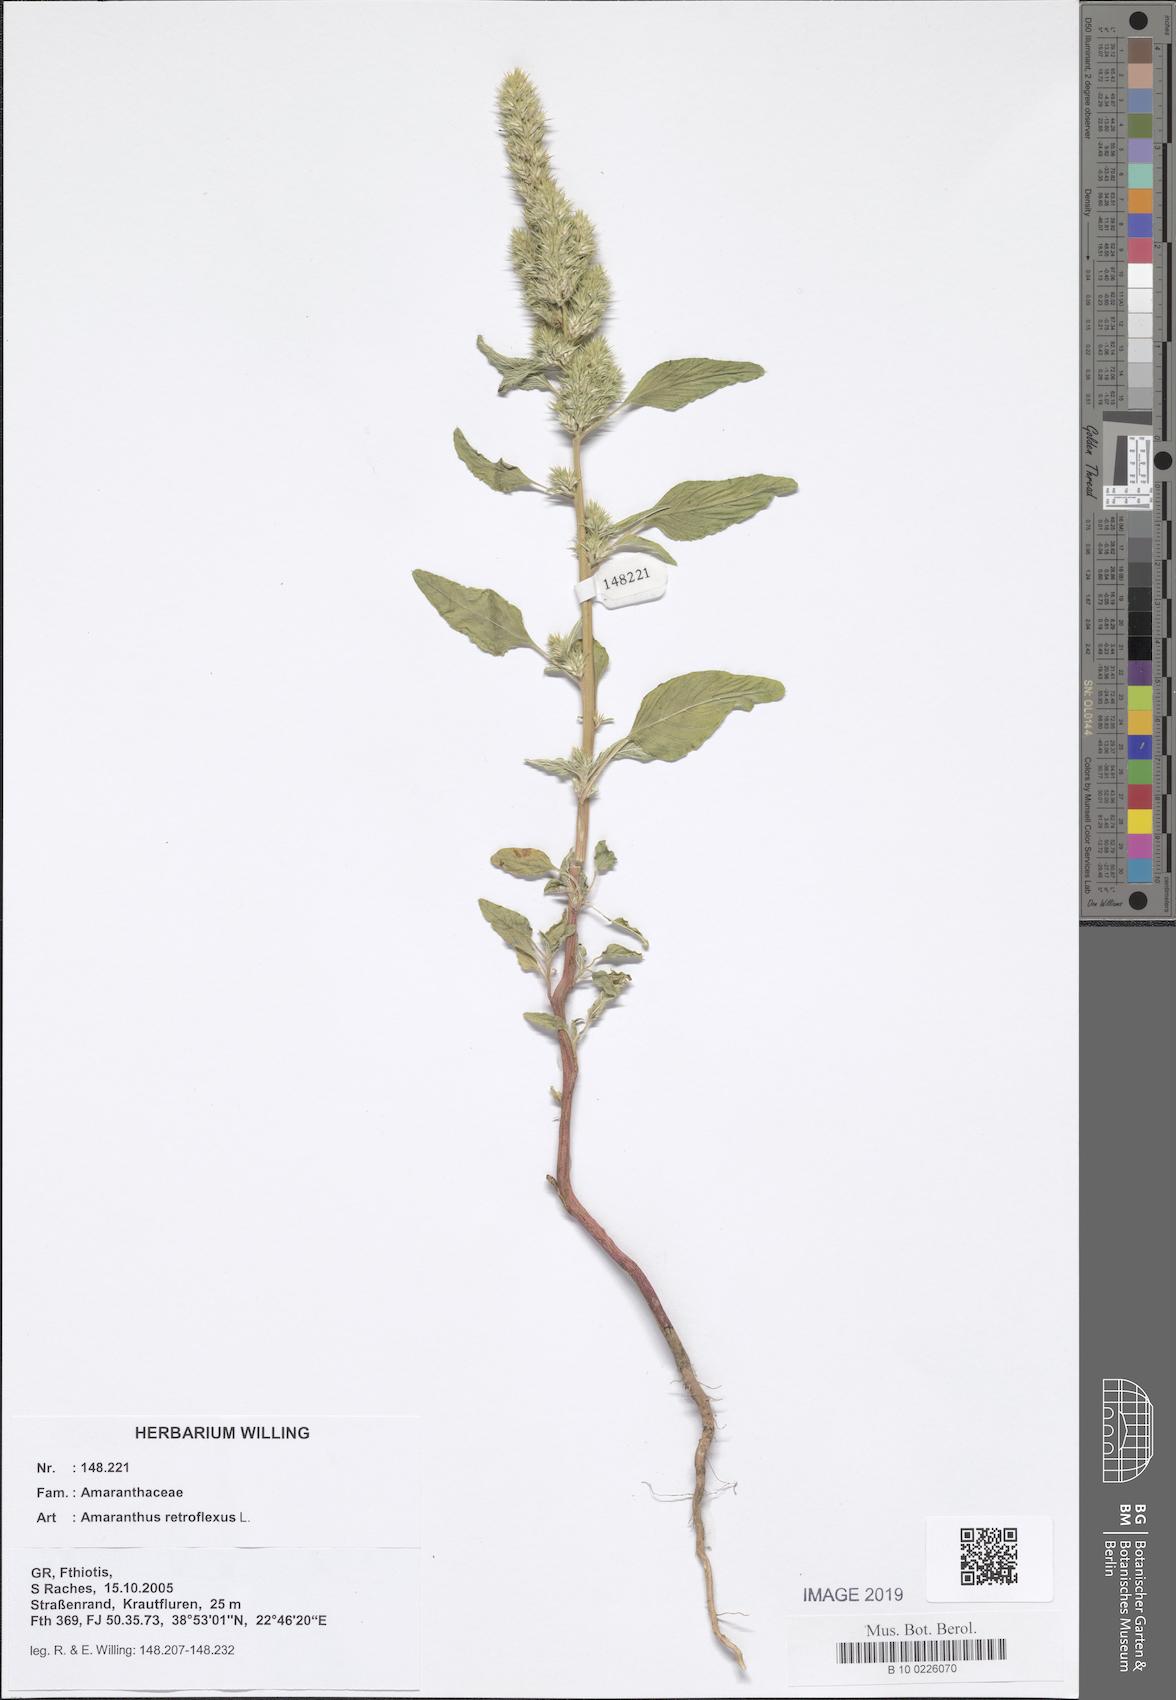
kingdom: Plantae
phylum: Tracheophyta
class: Magnoliopsida
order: Caryophyllales
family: Amaranthaceae
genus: Amaranthus
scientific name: Amaranthus retroflexus
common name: Redroot amaranth
